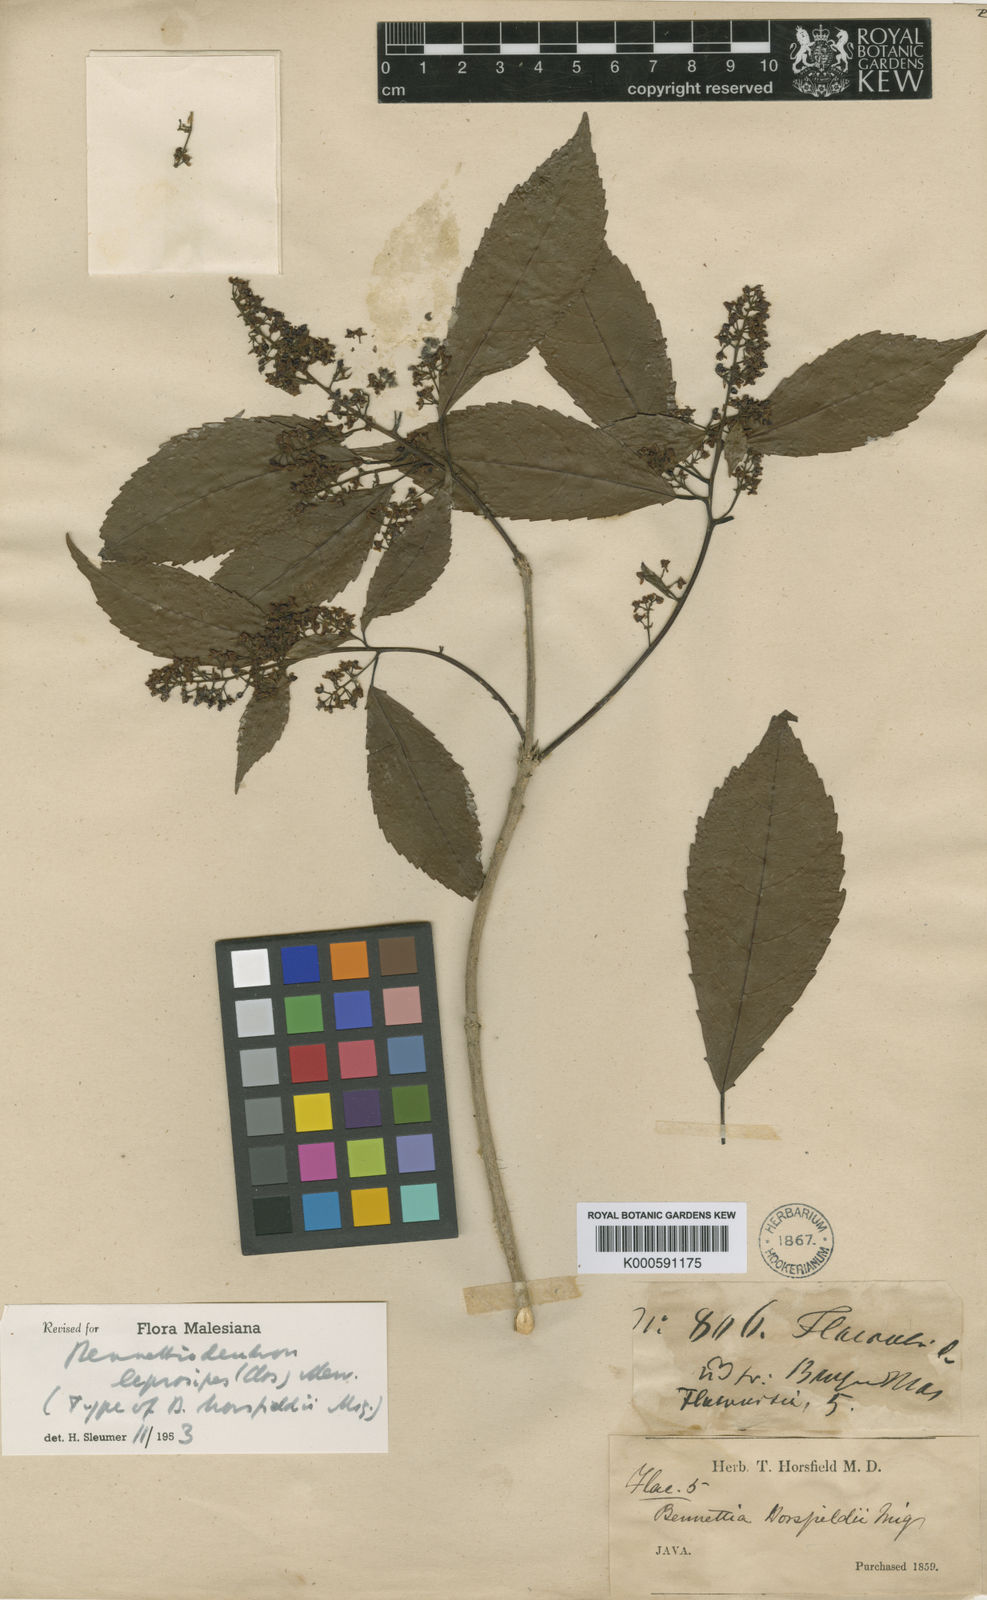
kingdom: Plantae
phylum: Tracheophyta
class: Magnoliopsida
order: Malpighiales
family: Salicaceae
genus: Bennettiodendron
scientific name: Bennettiodendron leprosipes
